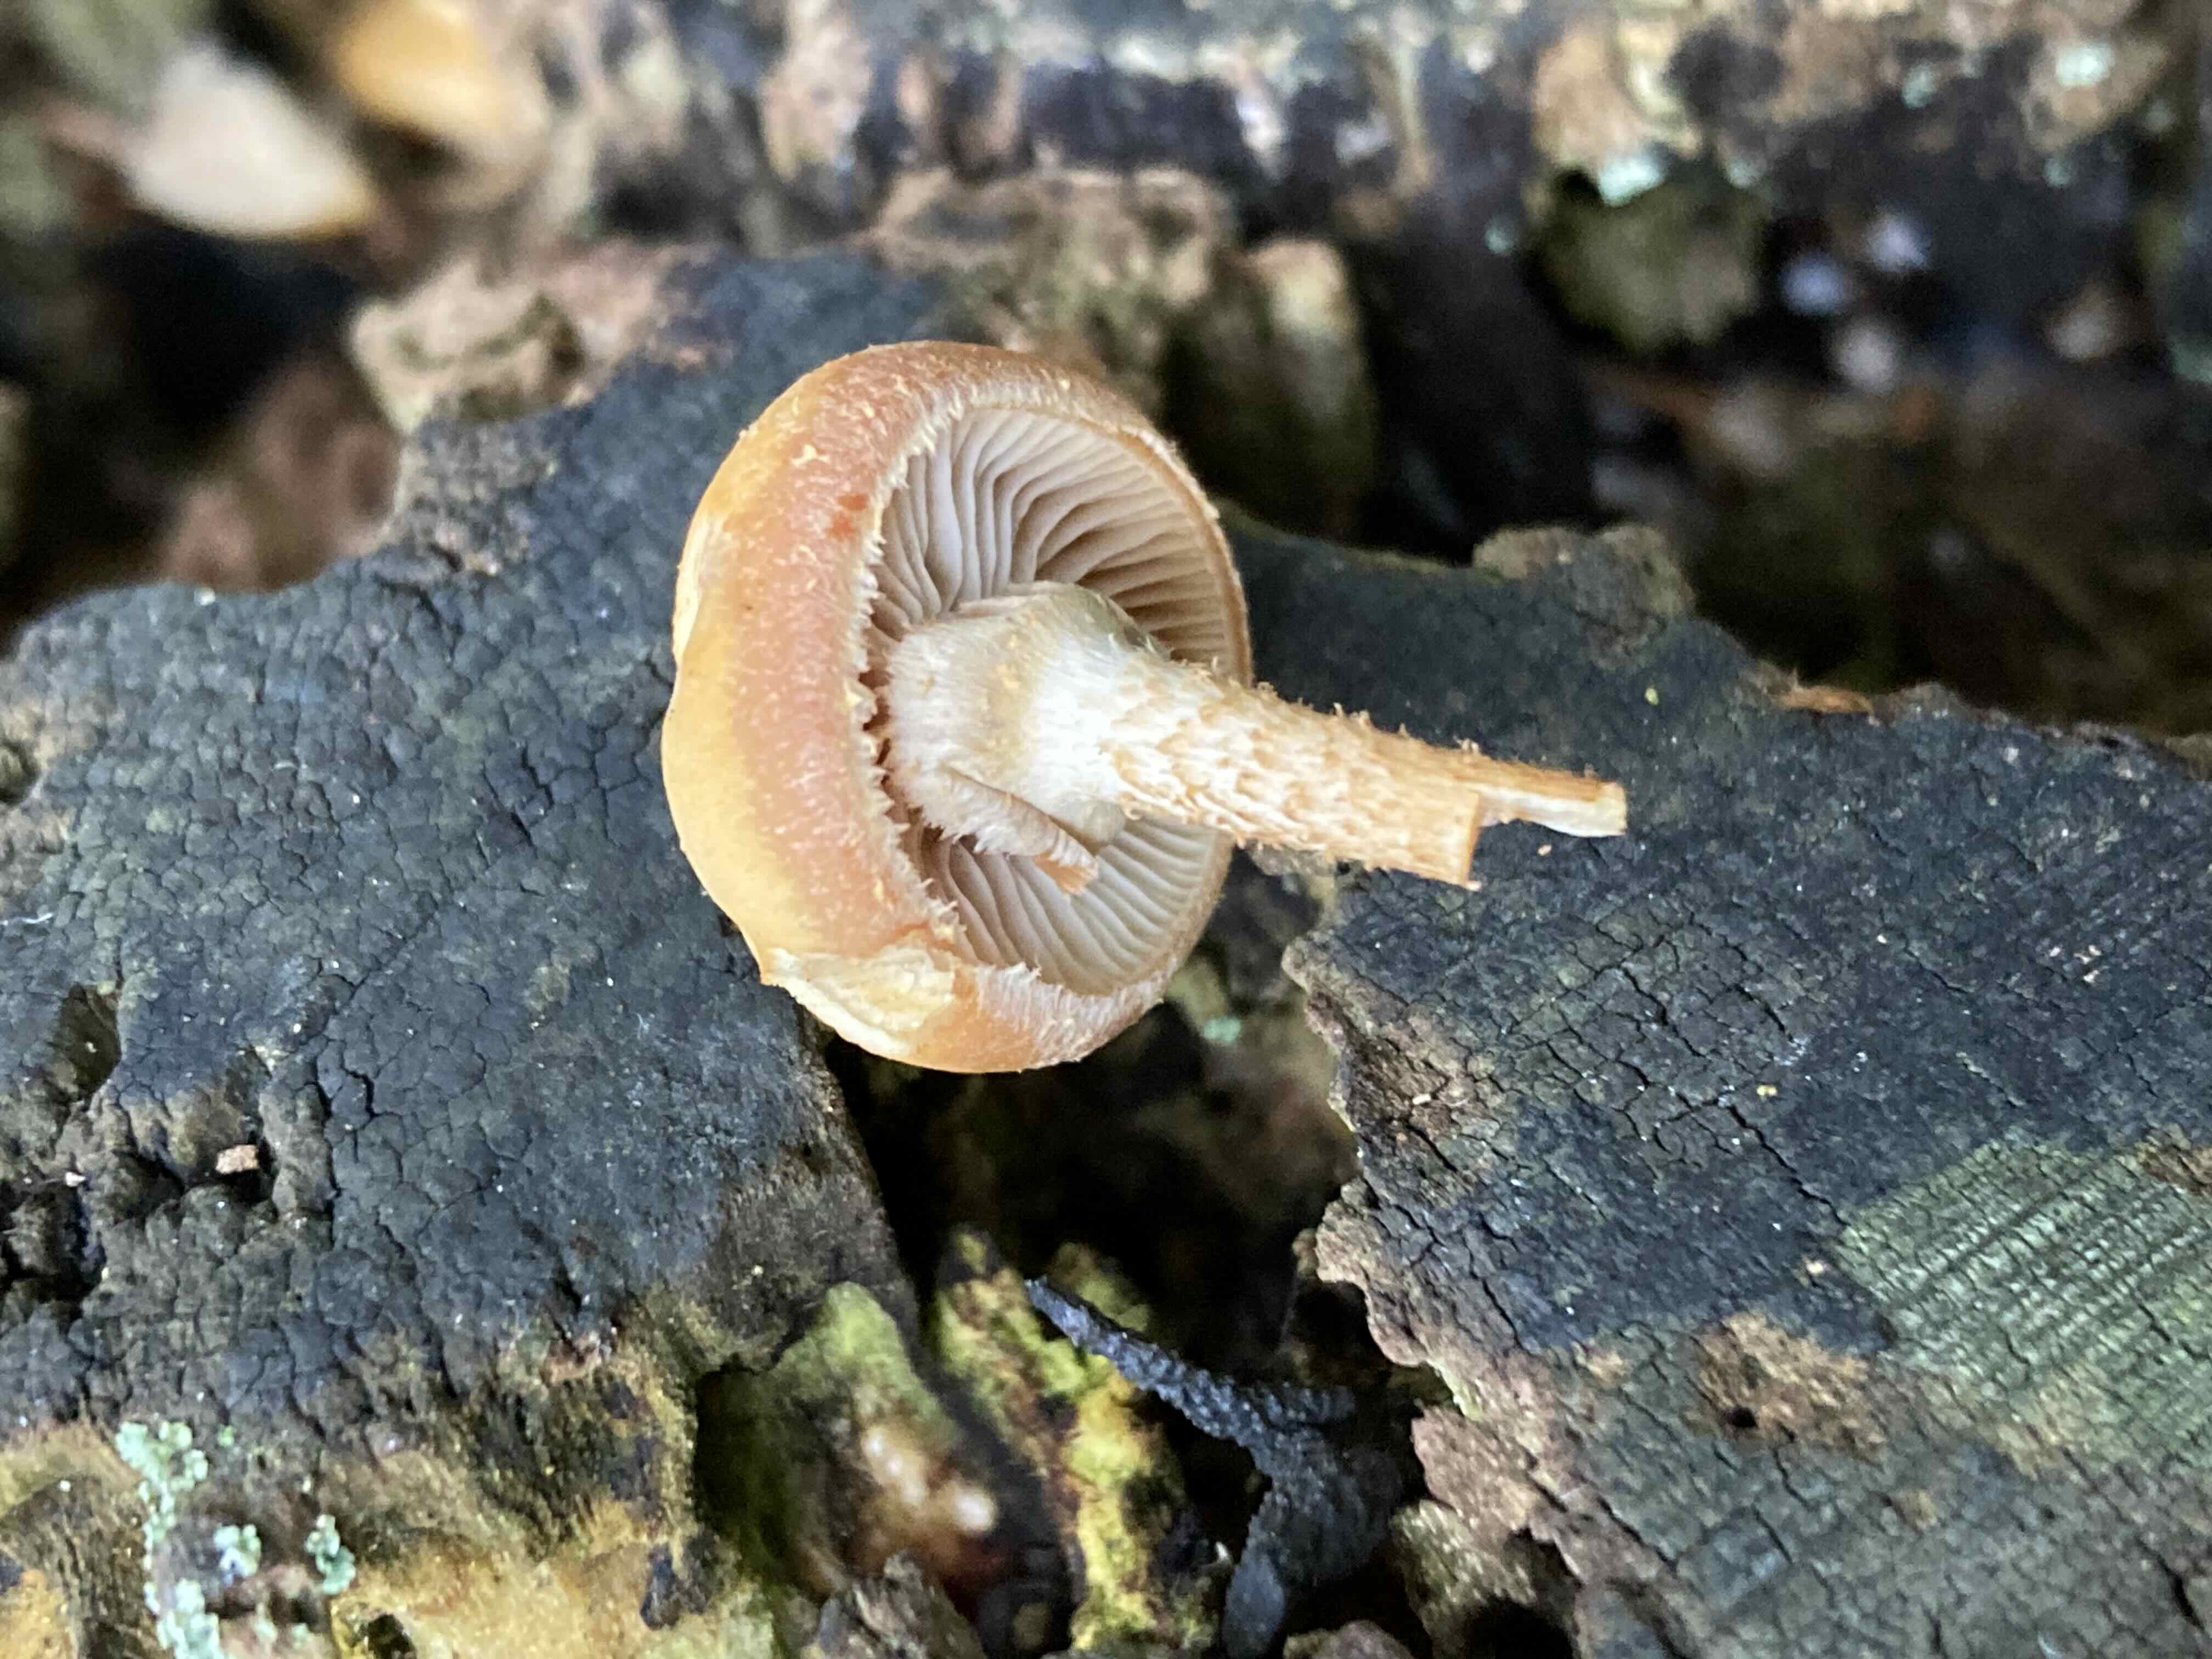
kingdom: Fungi
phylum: Basidiomycota
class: Agaricomycetes
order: Agaricales
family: Strophariaceae
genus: Kuehneromyces
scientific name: Kuehneromyces mutabilis
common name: foranderlig skælhat
